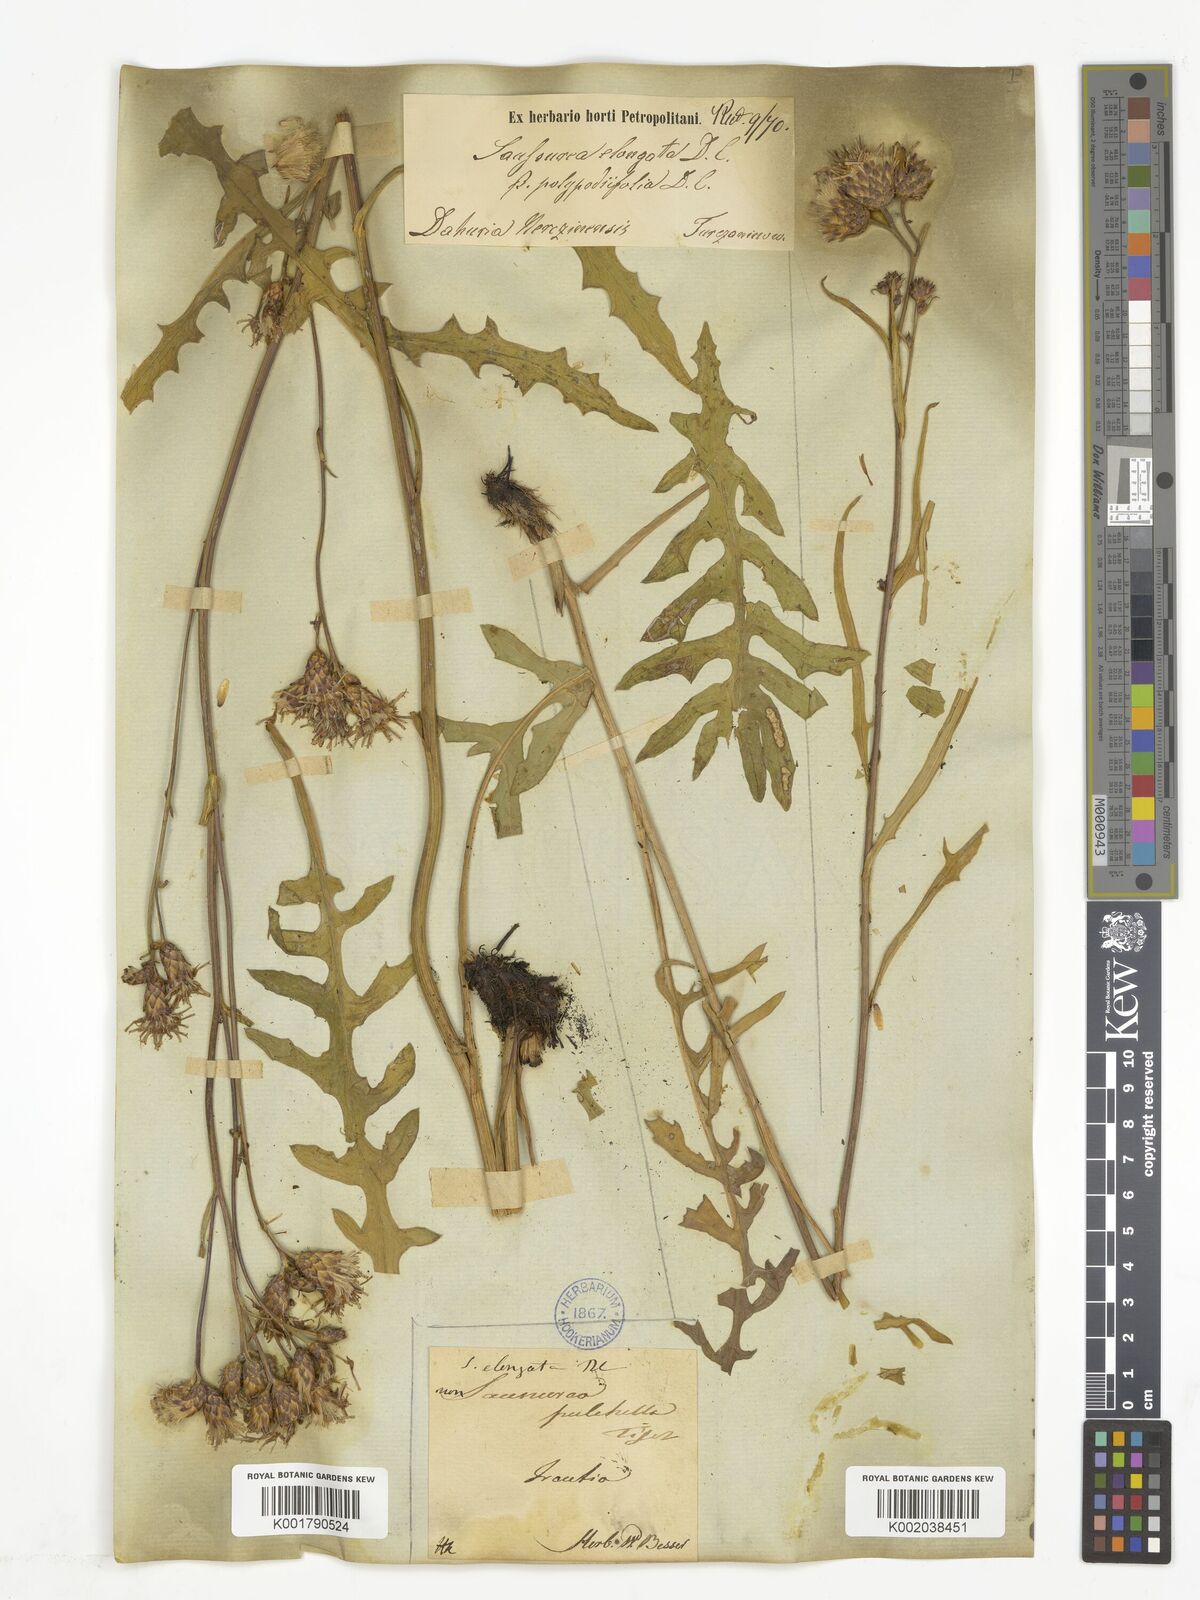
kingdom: Plantae
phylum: Tracheophyta
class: Magnoliopsida
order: Asterales
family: Asteraceae
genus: Saussurea
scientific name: Saussurea elongata
